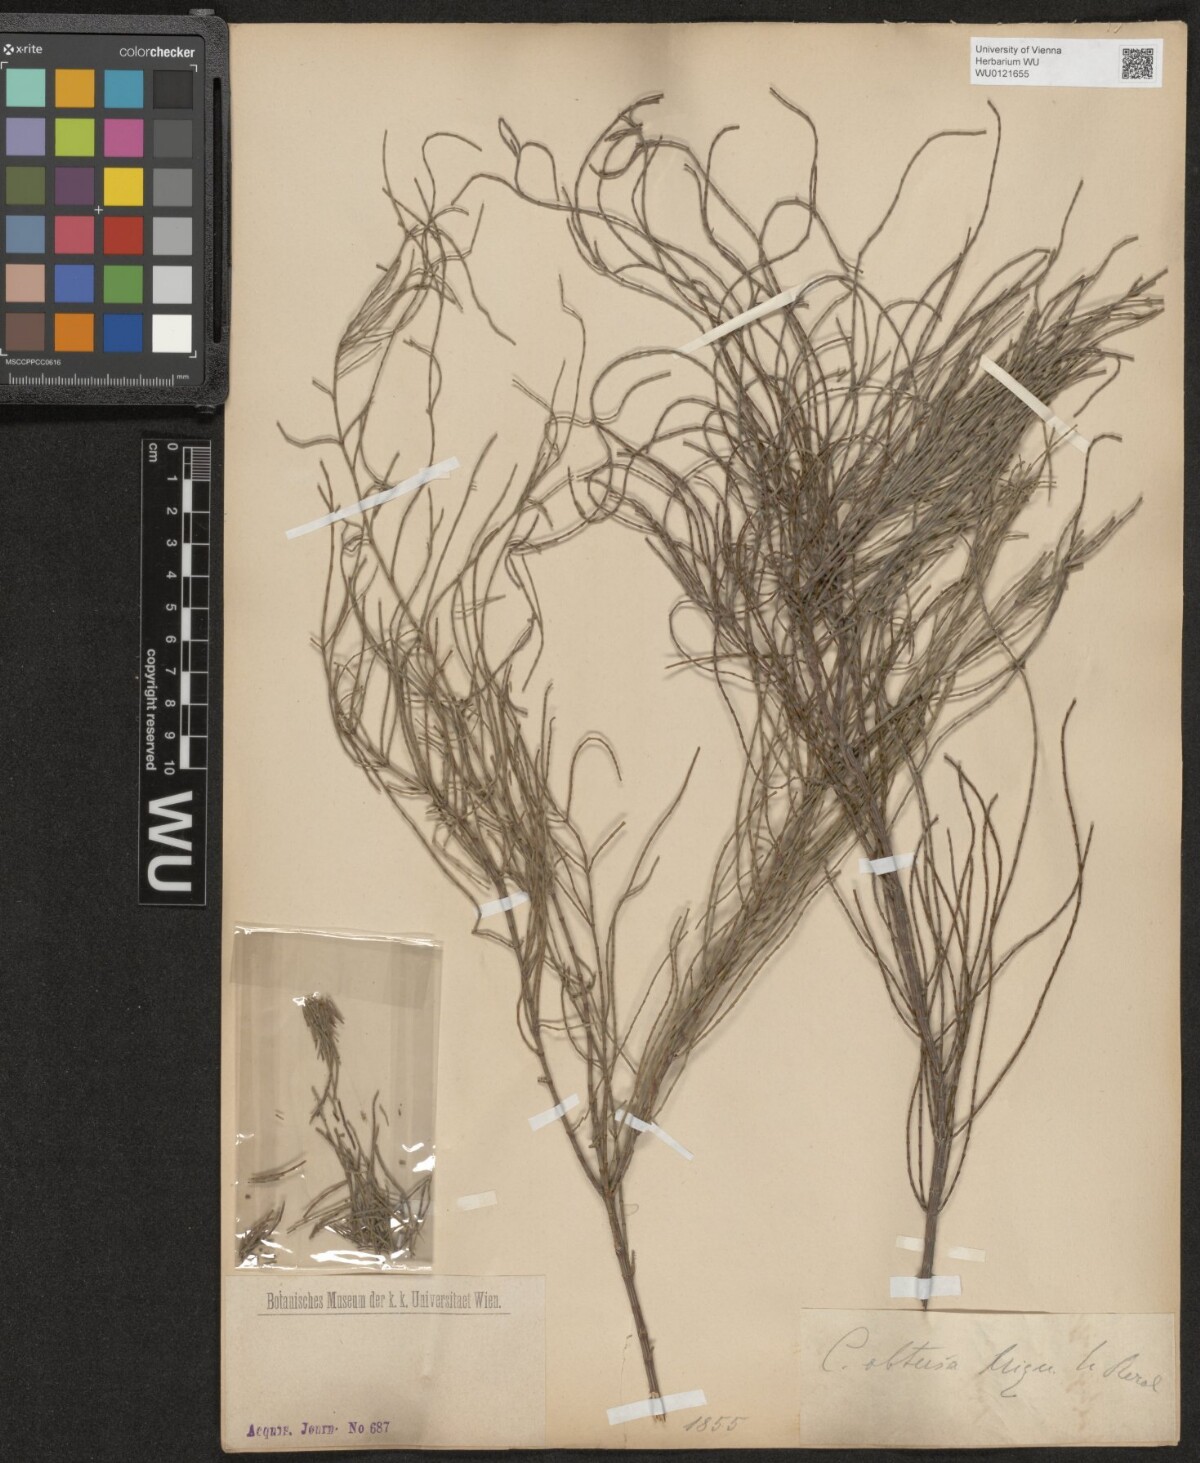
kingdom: Plantae
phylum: Tracheophyta
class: Magnoliopsida
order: Fagales
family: Casuarinaceae
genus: Casuarina
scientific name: Casuarina glauca
